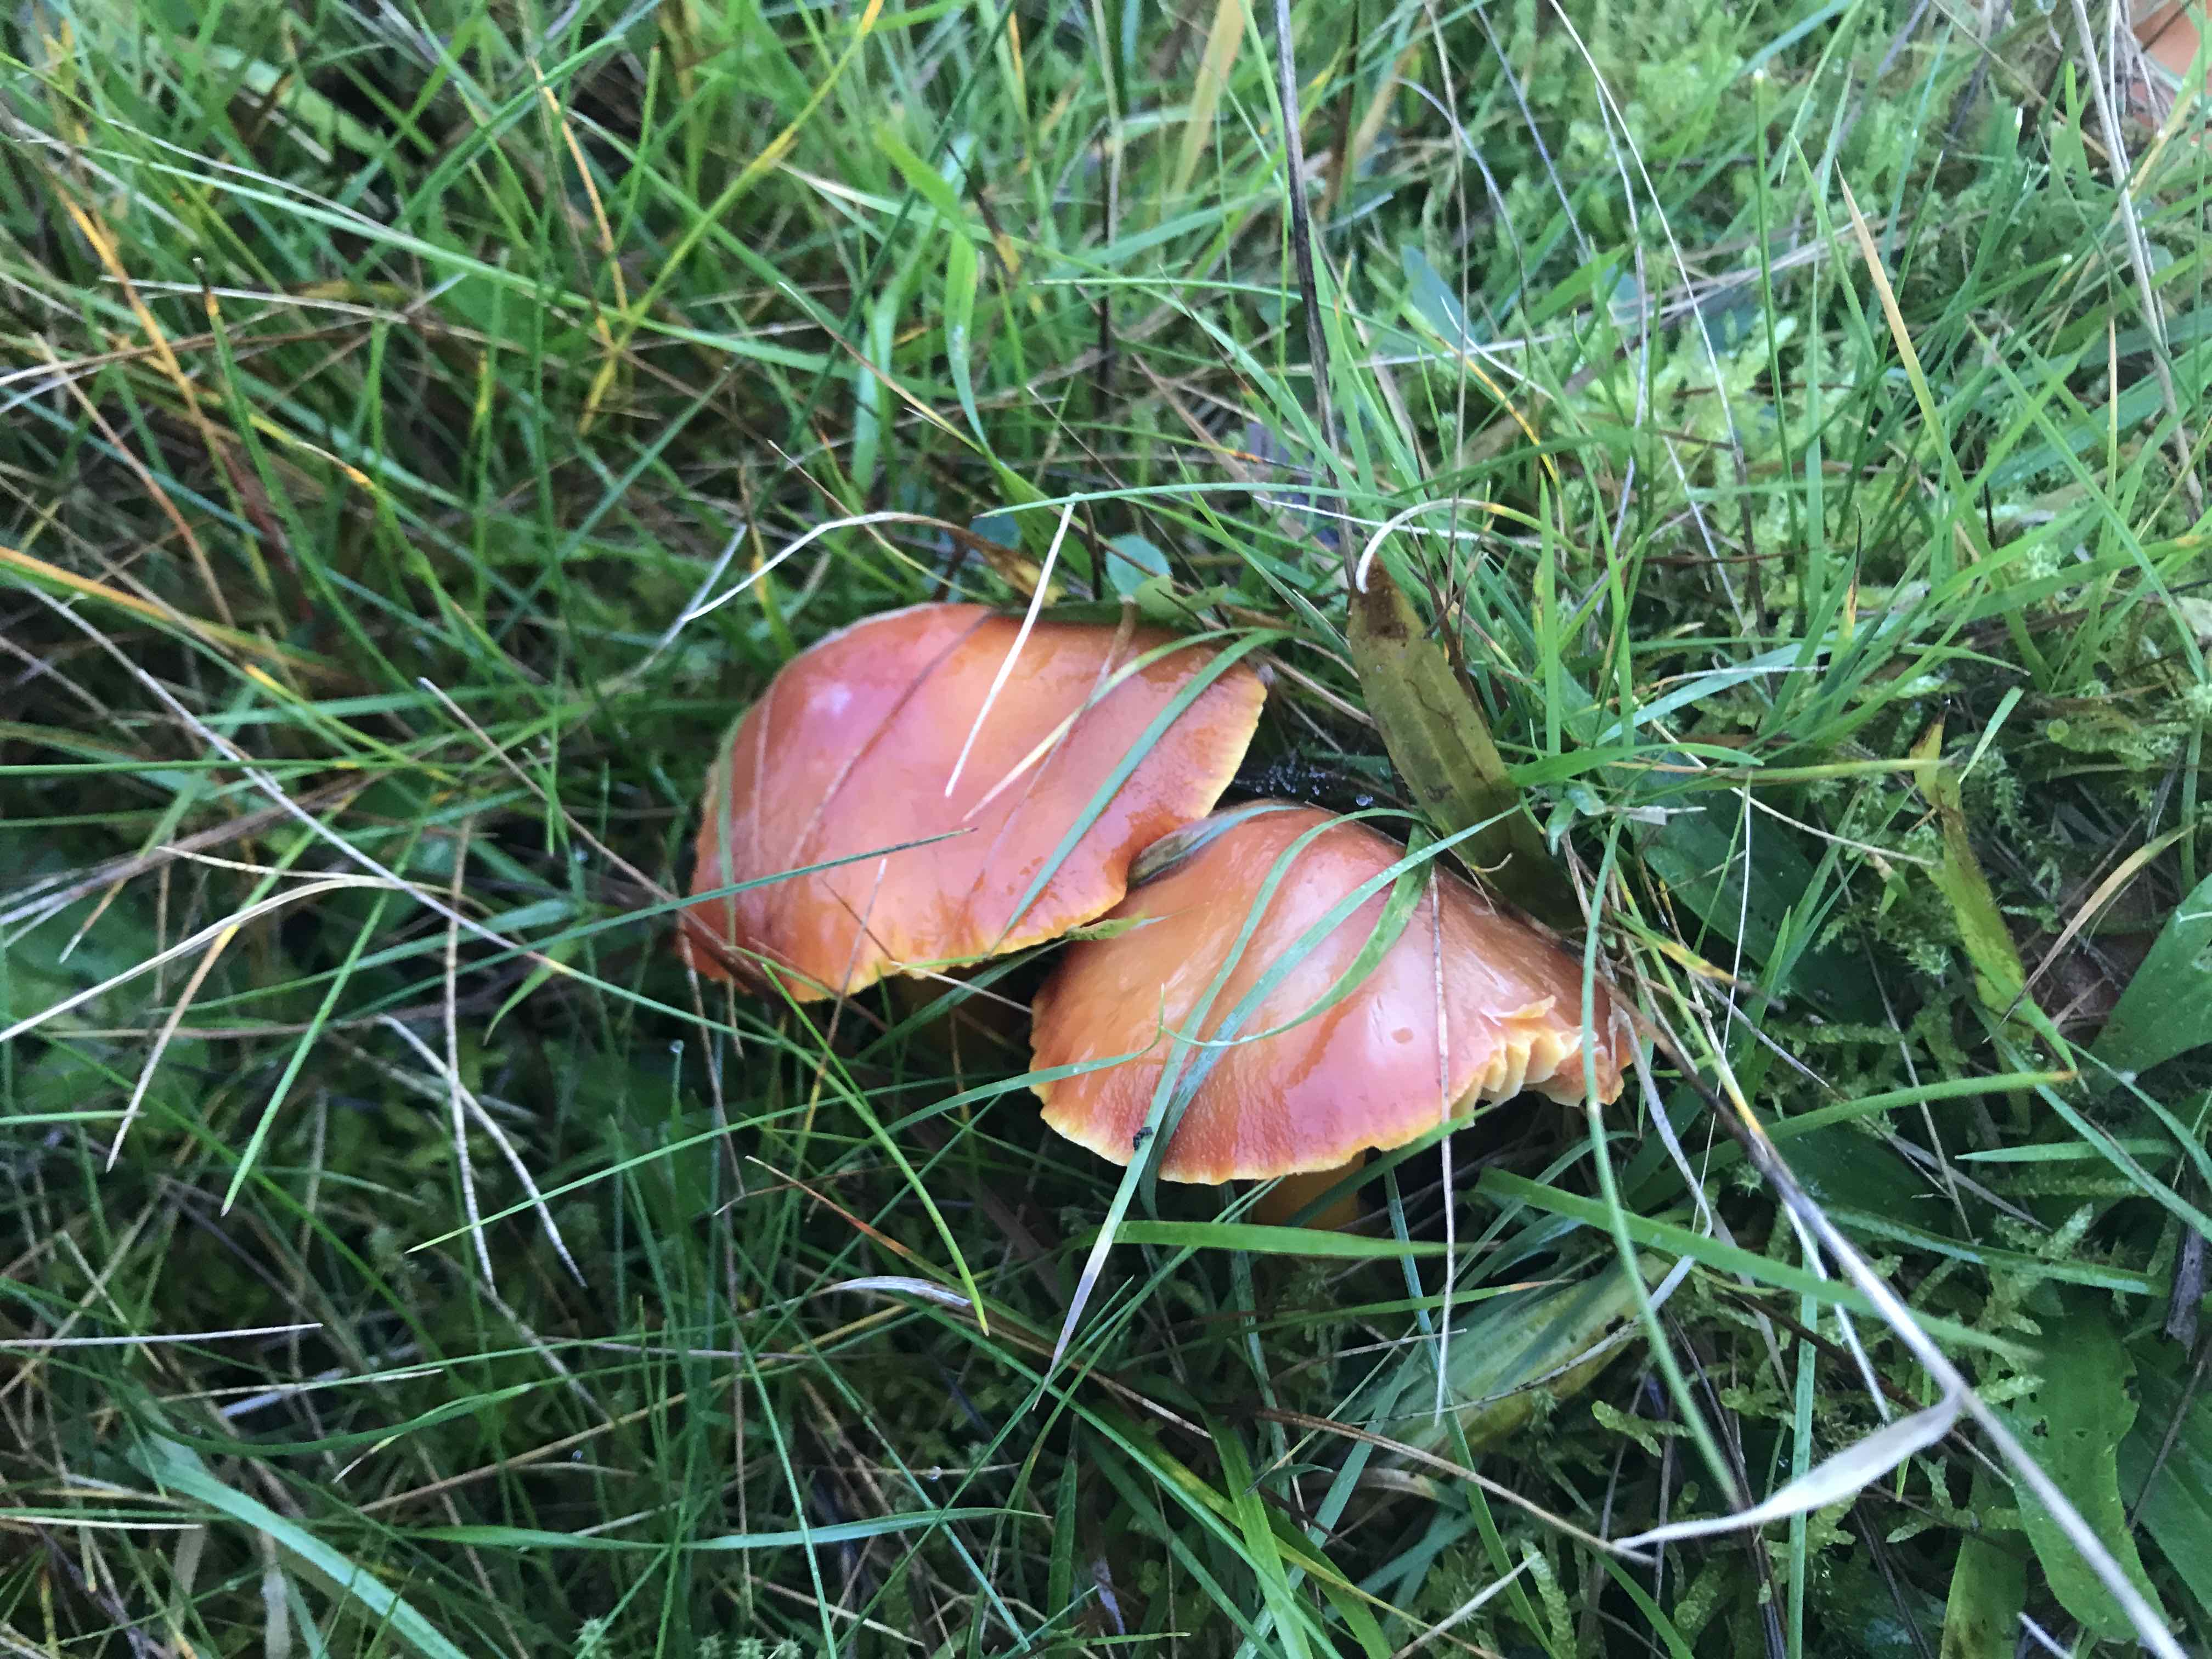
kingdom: Fungi
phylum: Basidiomycota
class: Agaricomycetes
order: Agaricales
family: Hygrophoraceae
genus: Hygrocybe
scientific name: Hygrocybe punicea
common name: skarlagen-vokshat
